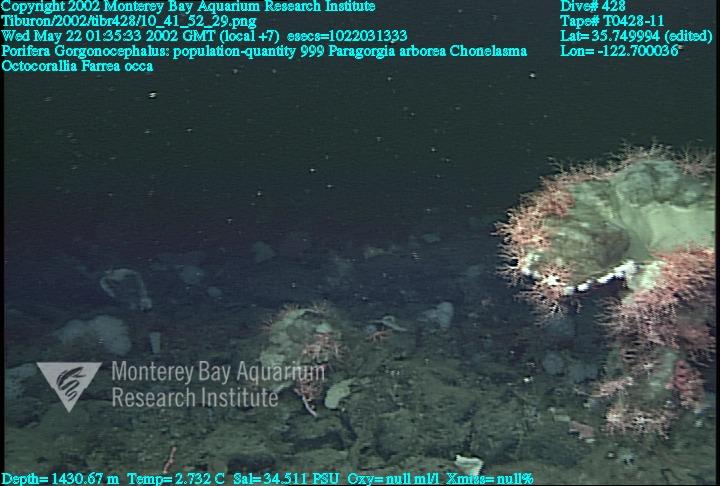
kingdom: Animalia
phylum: Porifera
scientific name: Porifera
